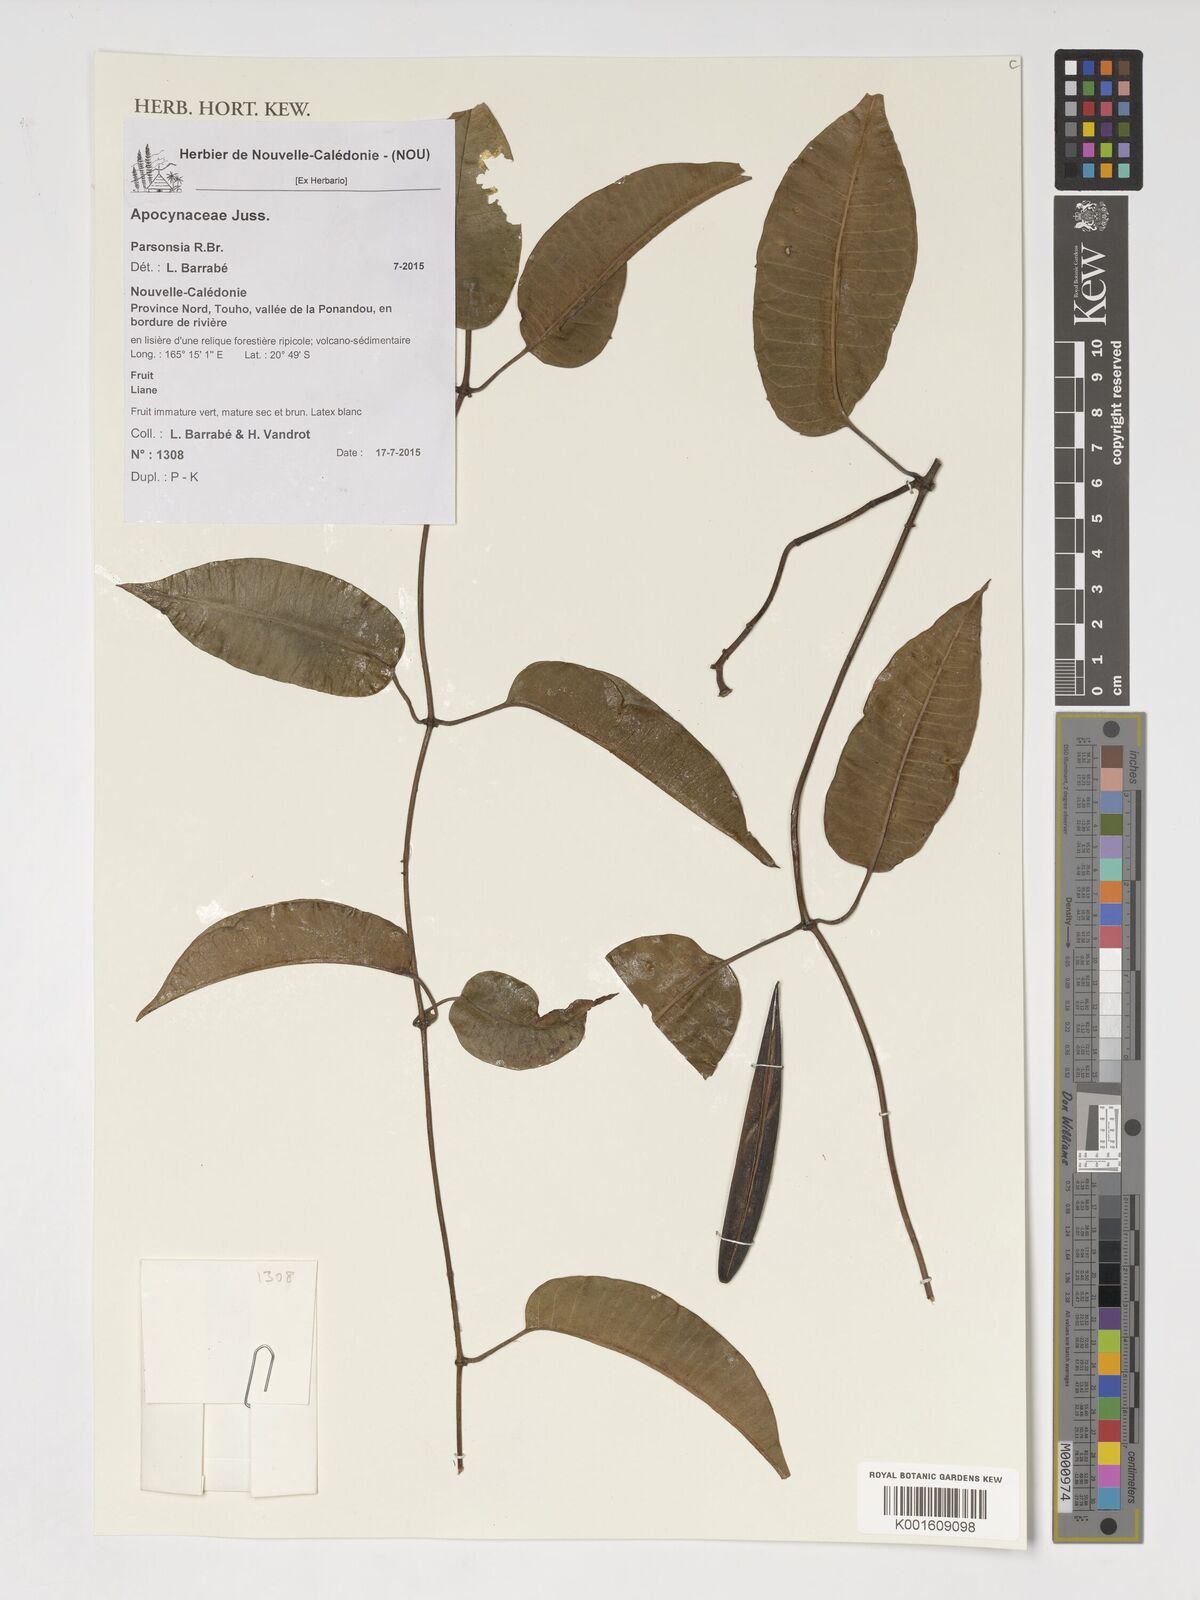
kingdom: Plantae
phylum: Tracheophyta
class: Magnoliopsida
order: Gentianales
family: Apocynaceae
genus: Parsonsia
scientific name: Parsonsia
